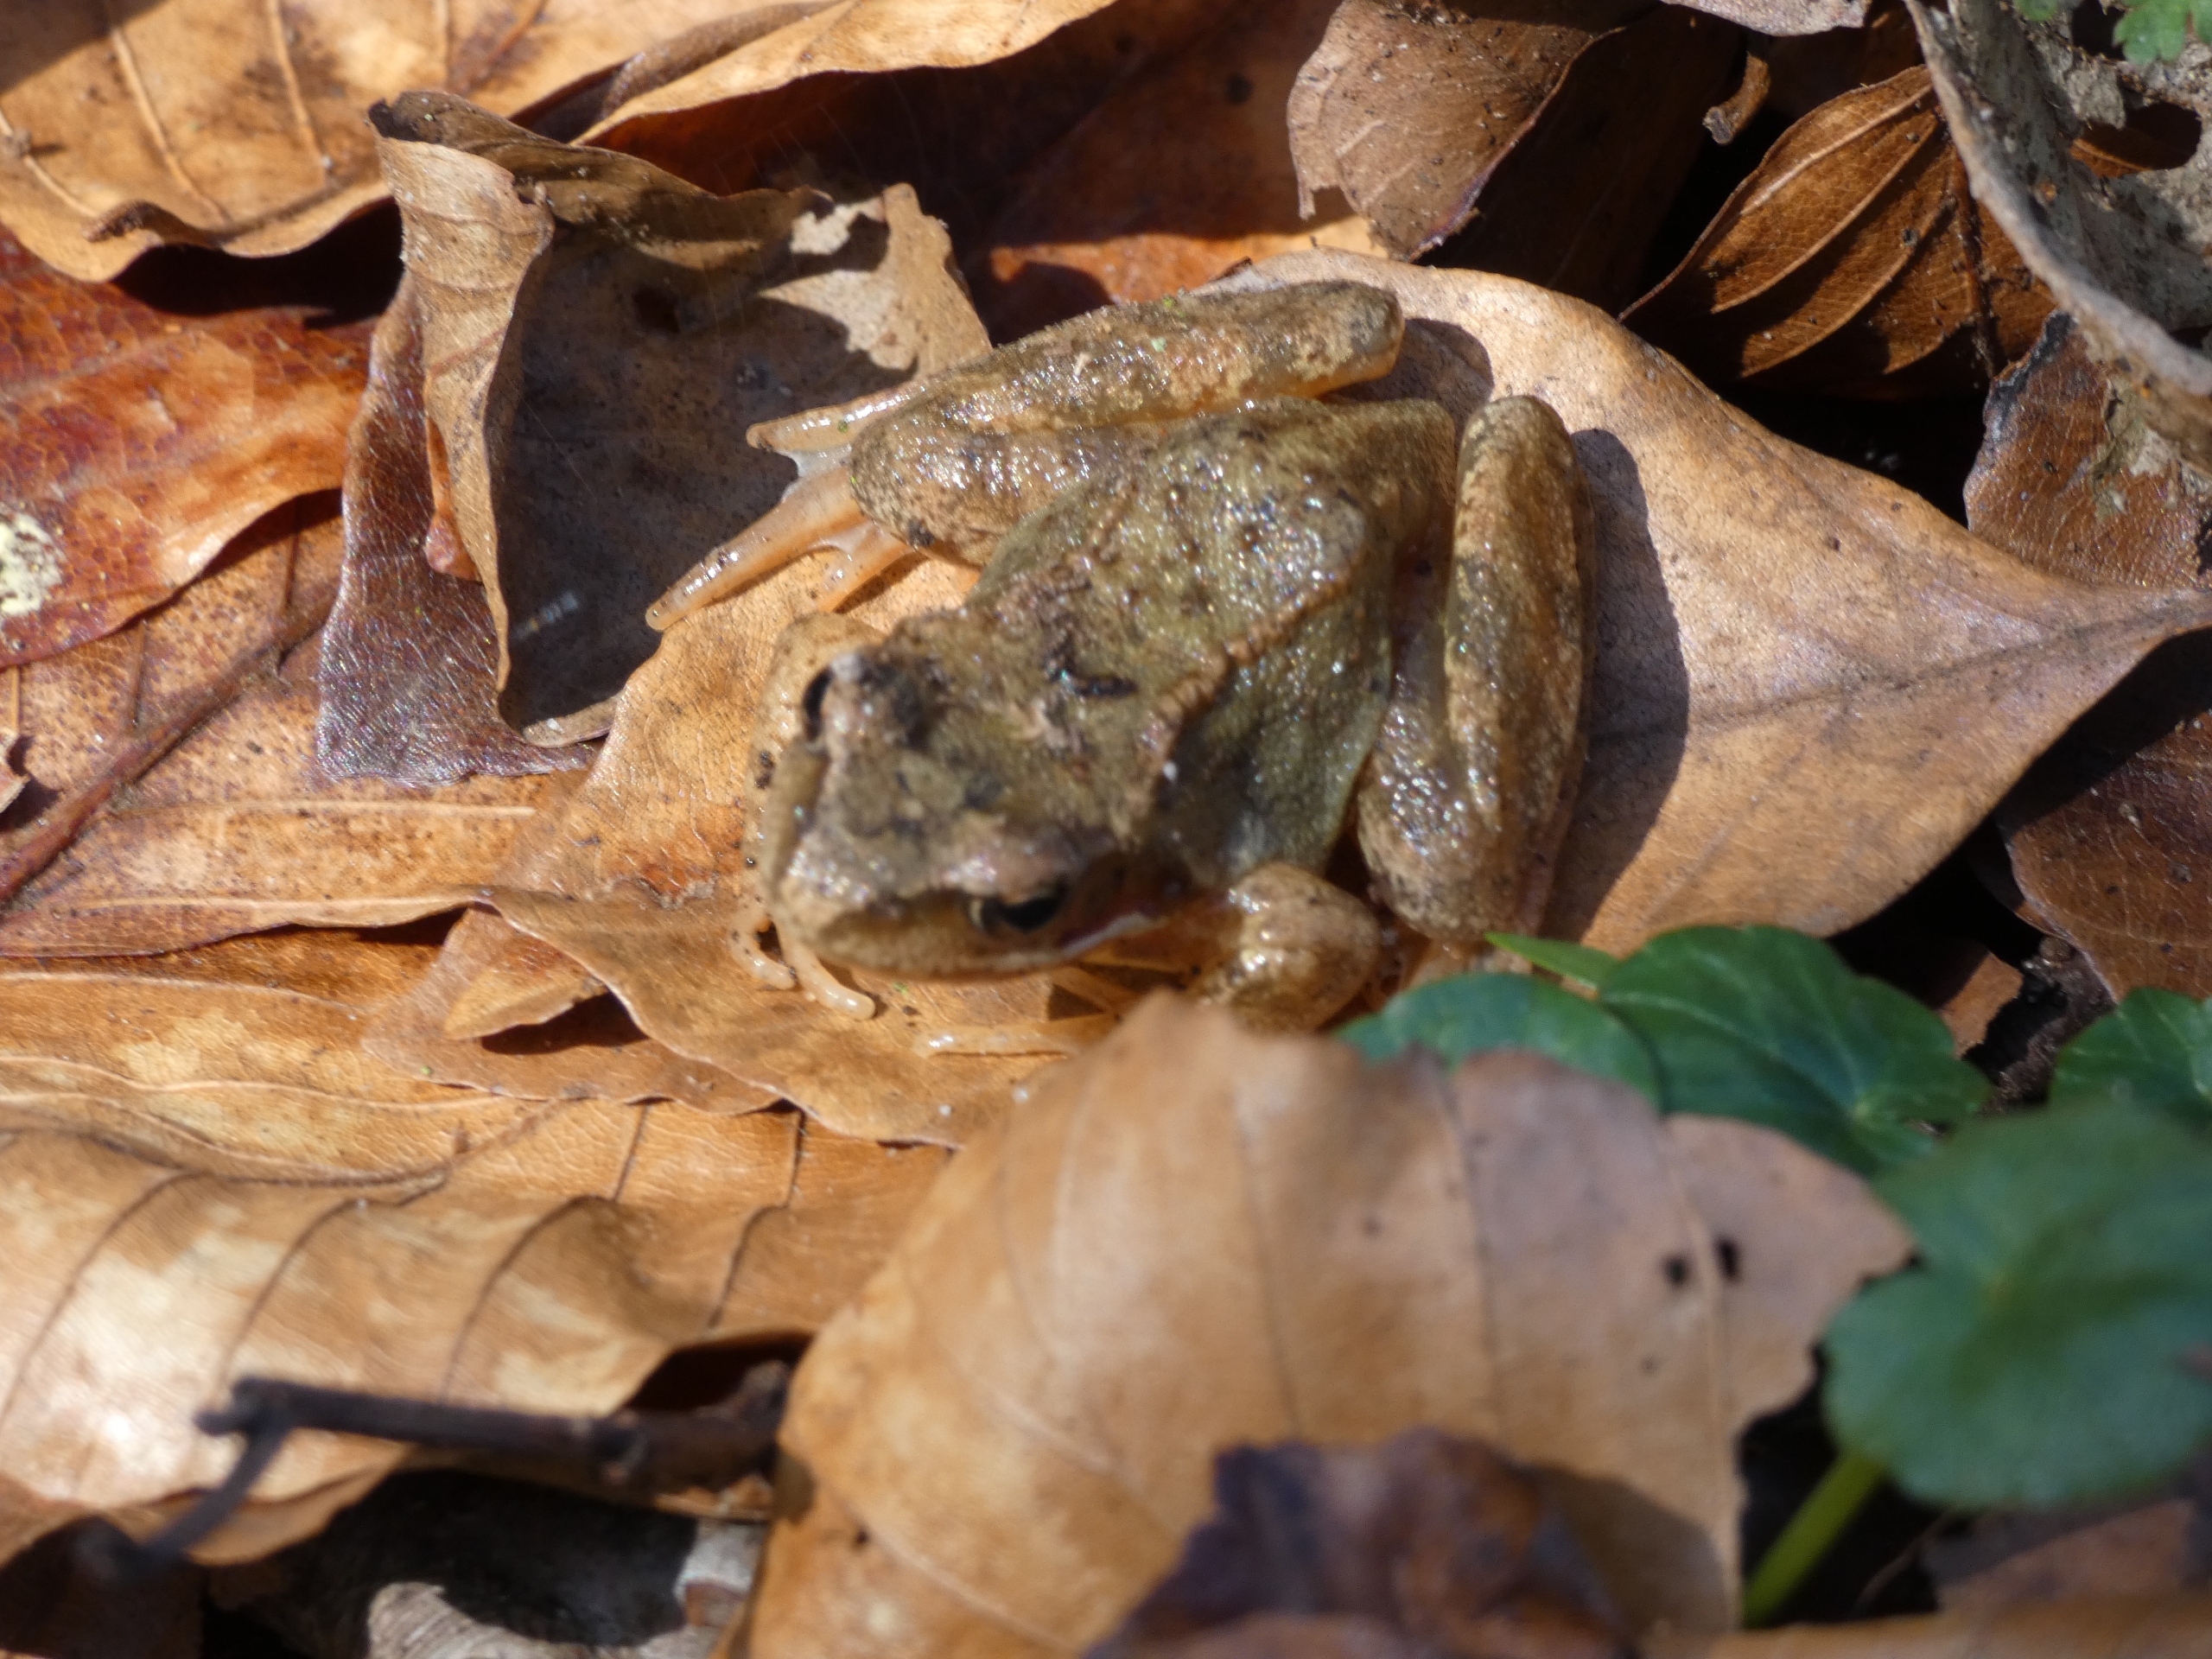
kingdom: Animalia
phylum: Chordata
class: Amphibia
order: Anura
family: Ranidae
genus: Rana
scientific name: Rana temporaria
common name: Butsnudet frø
